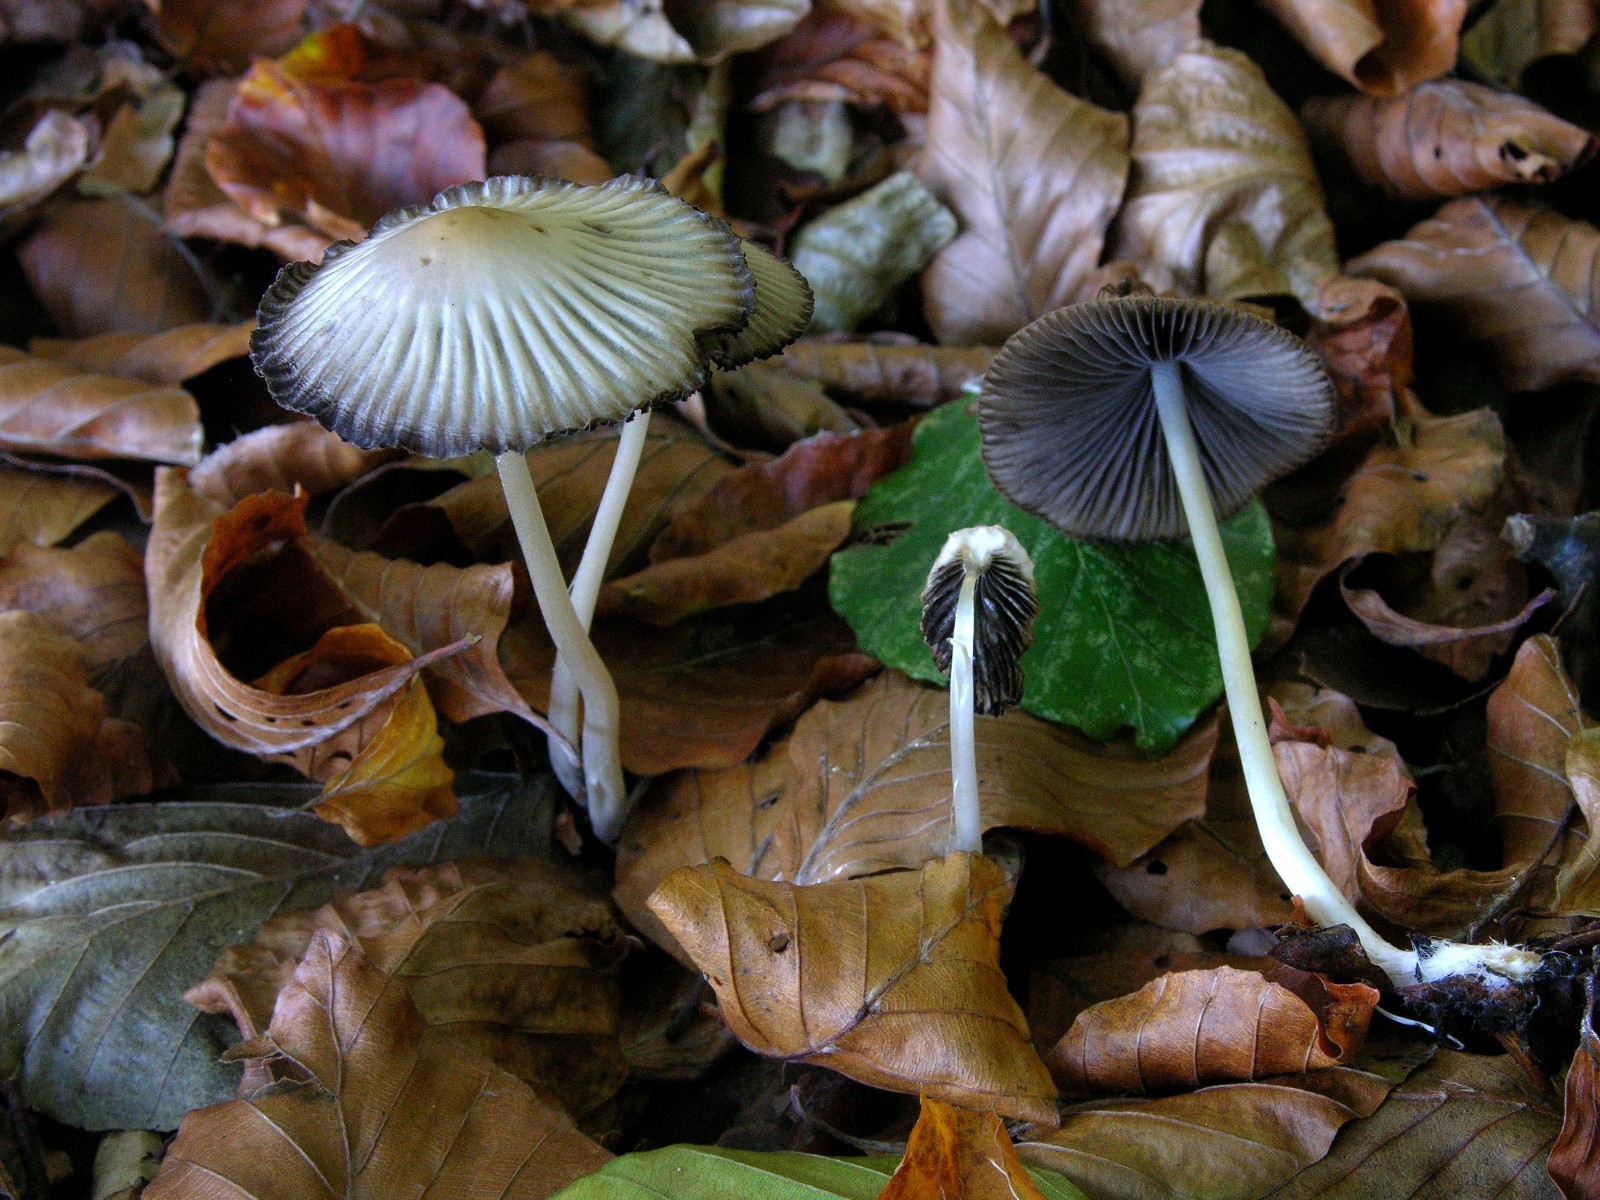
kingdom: Fungi
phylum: Basidiomycota
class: Agaricomycetes
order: Agaricales
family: Psathyrellaceae
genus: Tulosesus
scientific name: Tulosesus impatiens
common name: furet blækhat
